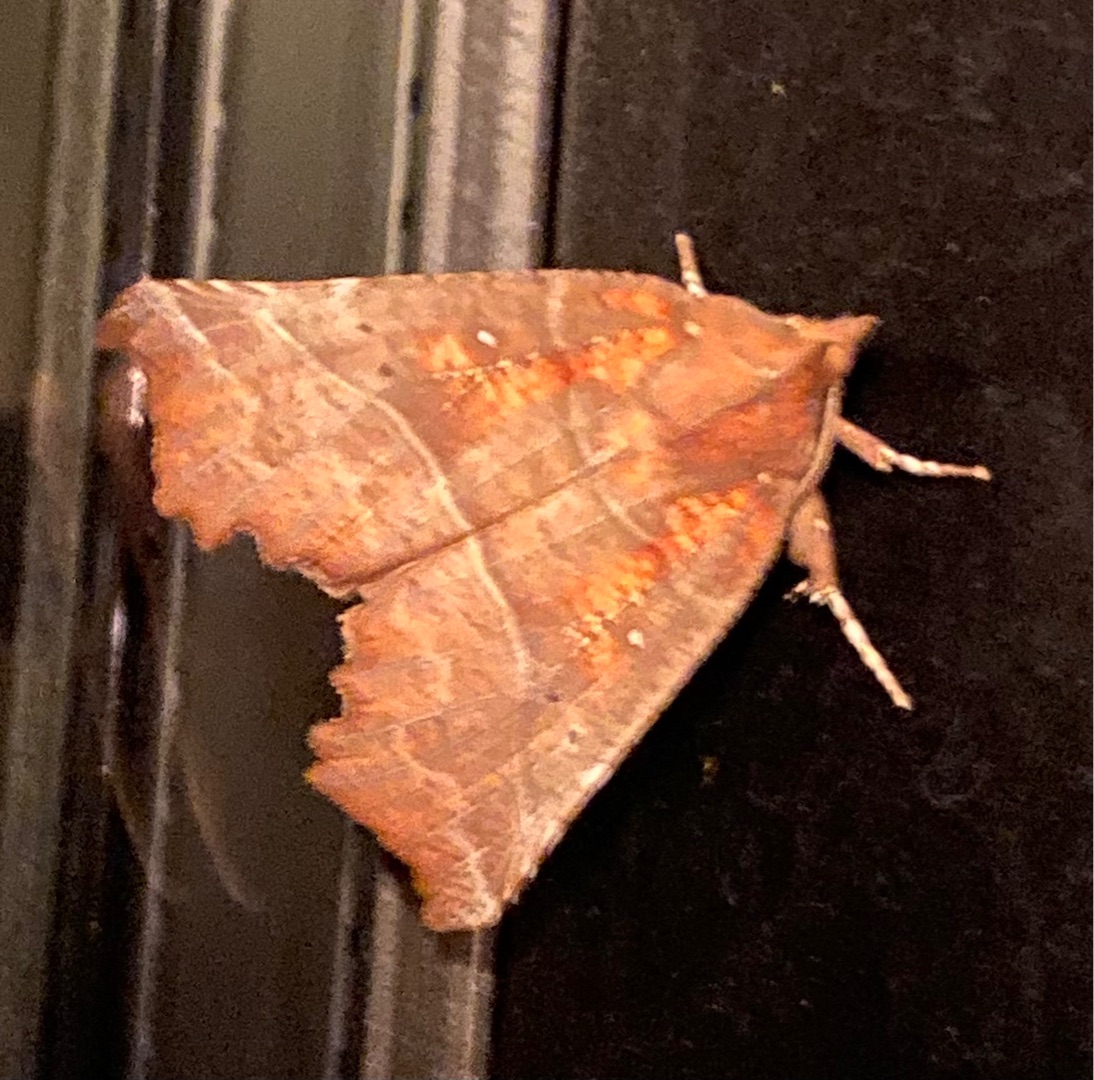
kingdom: Animalia
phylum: Arthropoda
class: Insecta
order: Lepidoptera
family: Erebidae
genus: Scoliopteryx
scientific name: Scoliopteryx libatrix
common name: Husmoderugle
